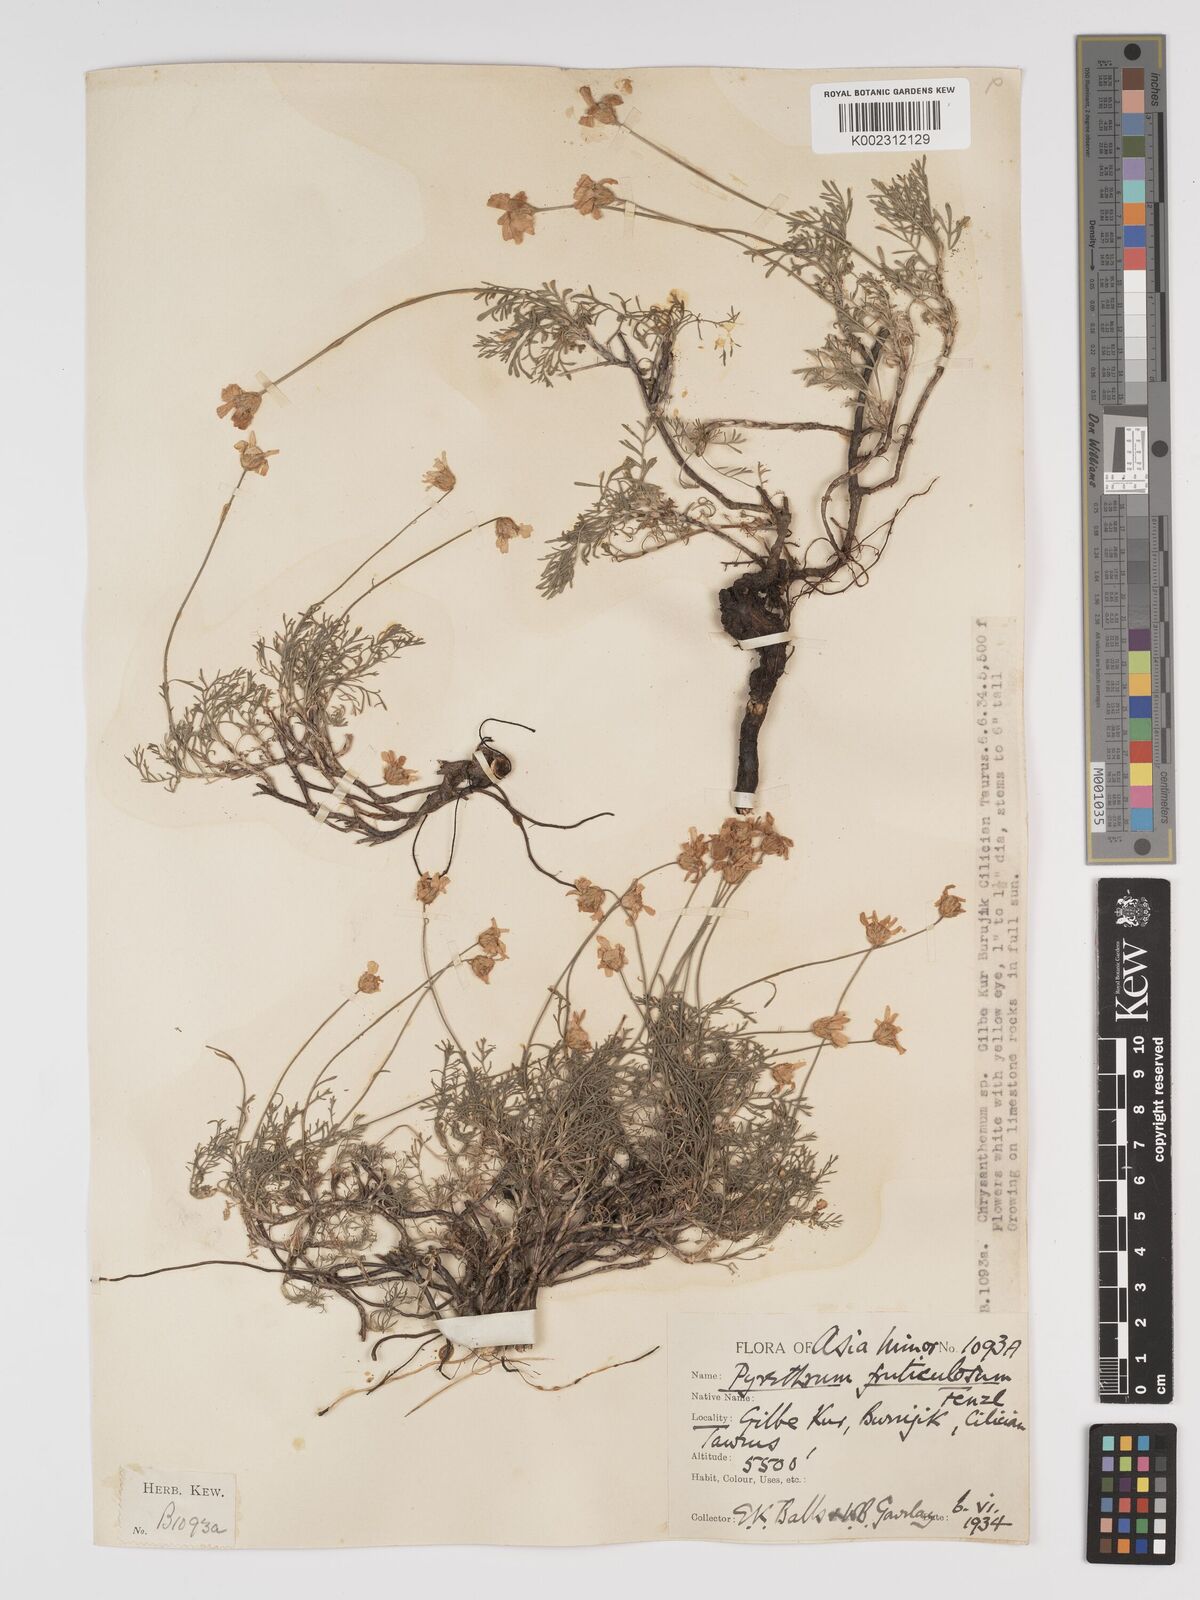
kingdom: Plantae
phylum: Tracheophyta
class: Magnoliopsida
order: Asterales
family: Asteraceae
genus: Tanacetum
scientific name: Tanacetum niveum
